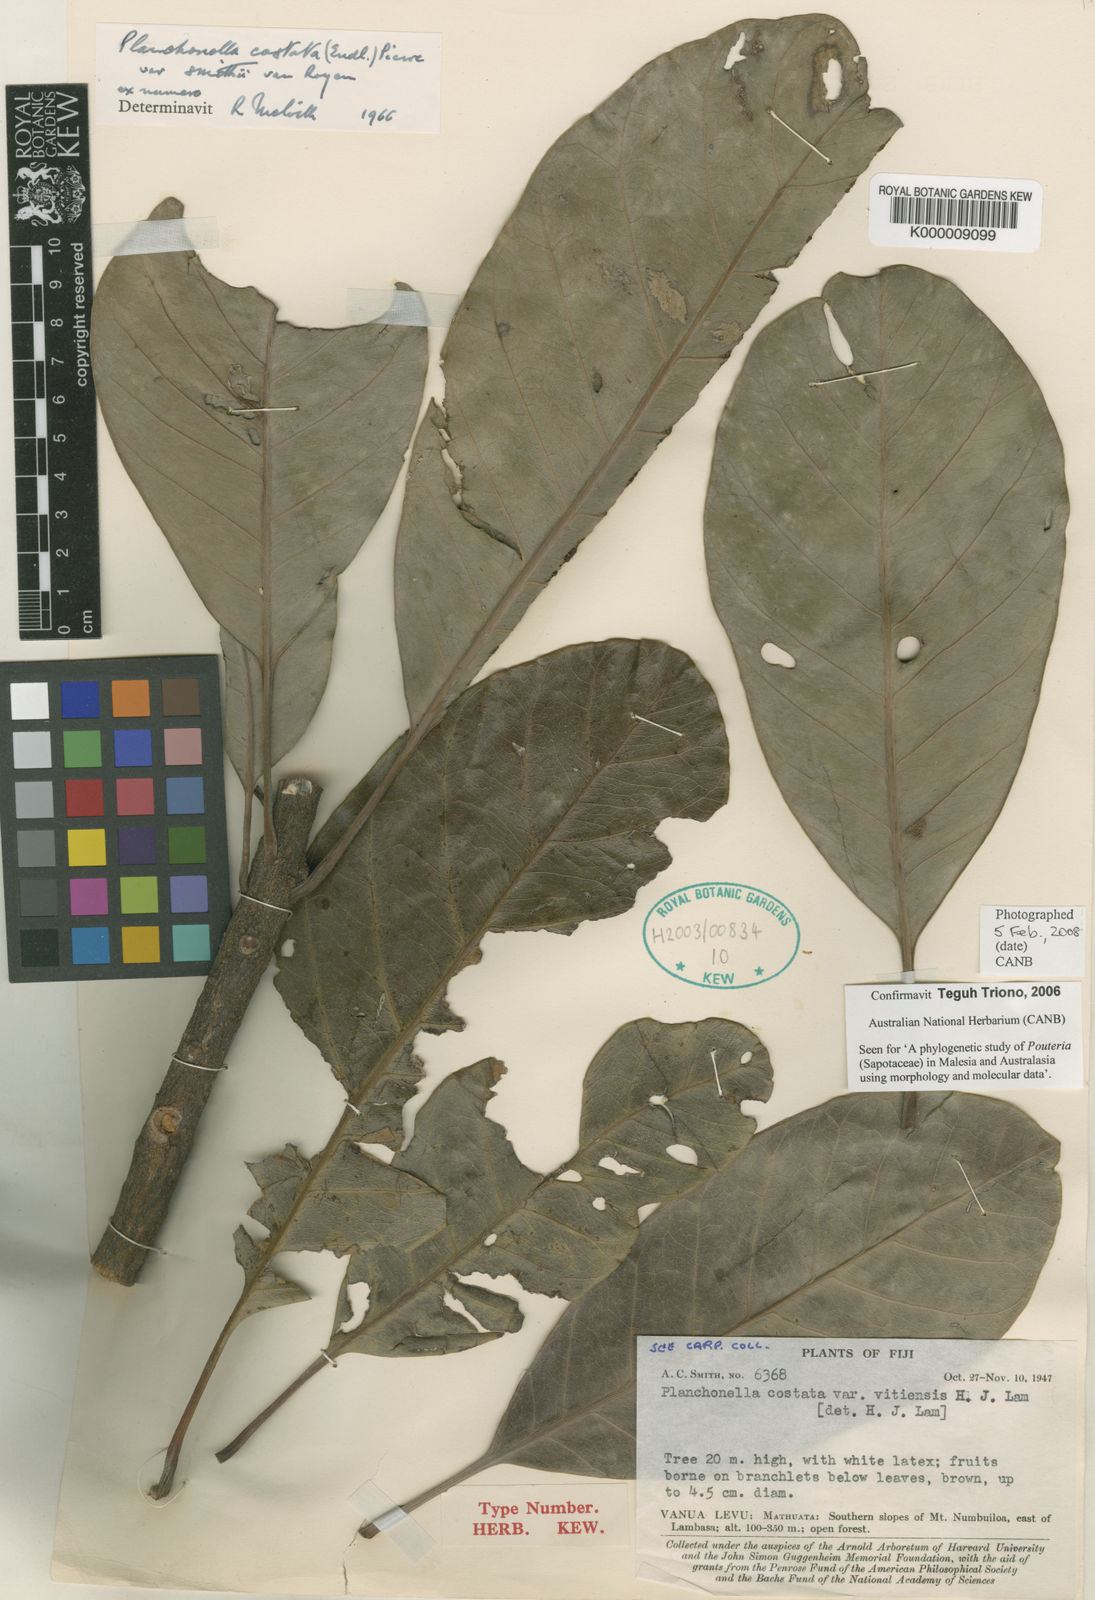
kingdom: Plantae
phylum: Tracheophyta
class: Magnoliopsida
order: Ericales
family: Sapotaceae
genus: Planchonella
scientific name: Planchonella costata
